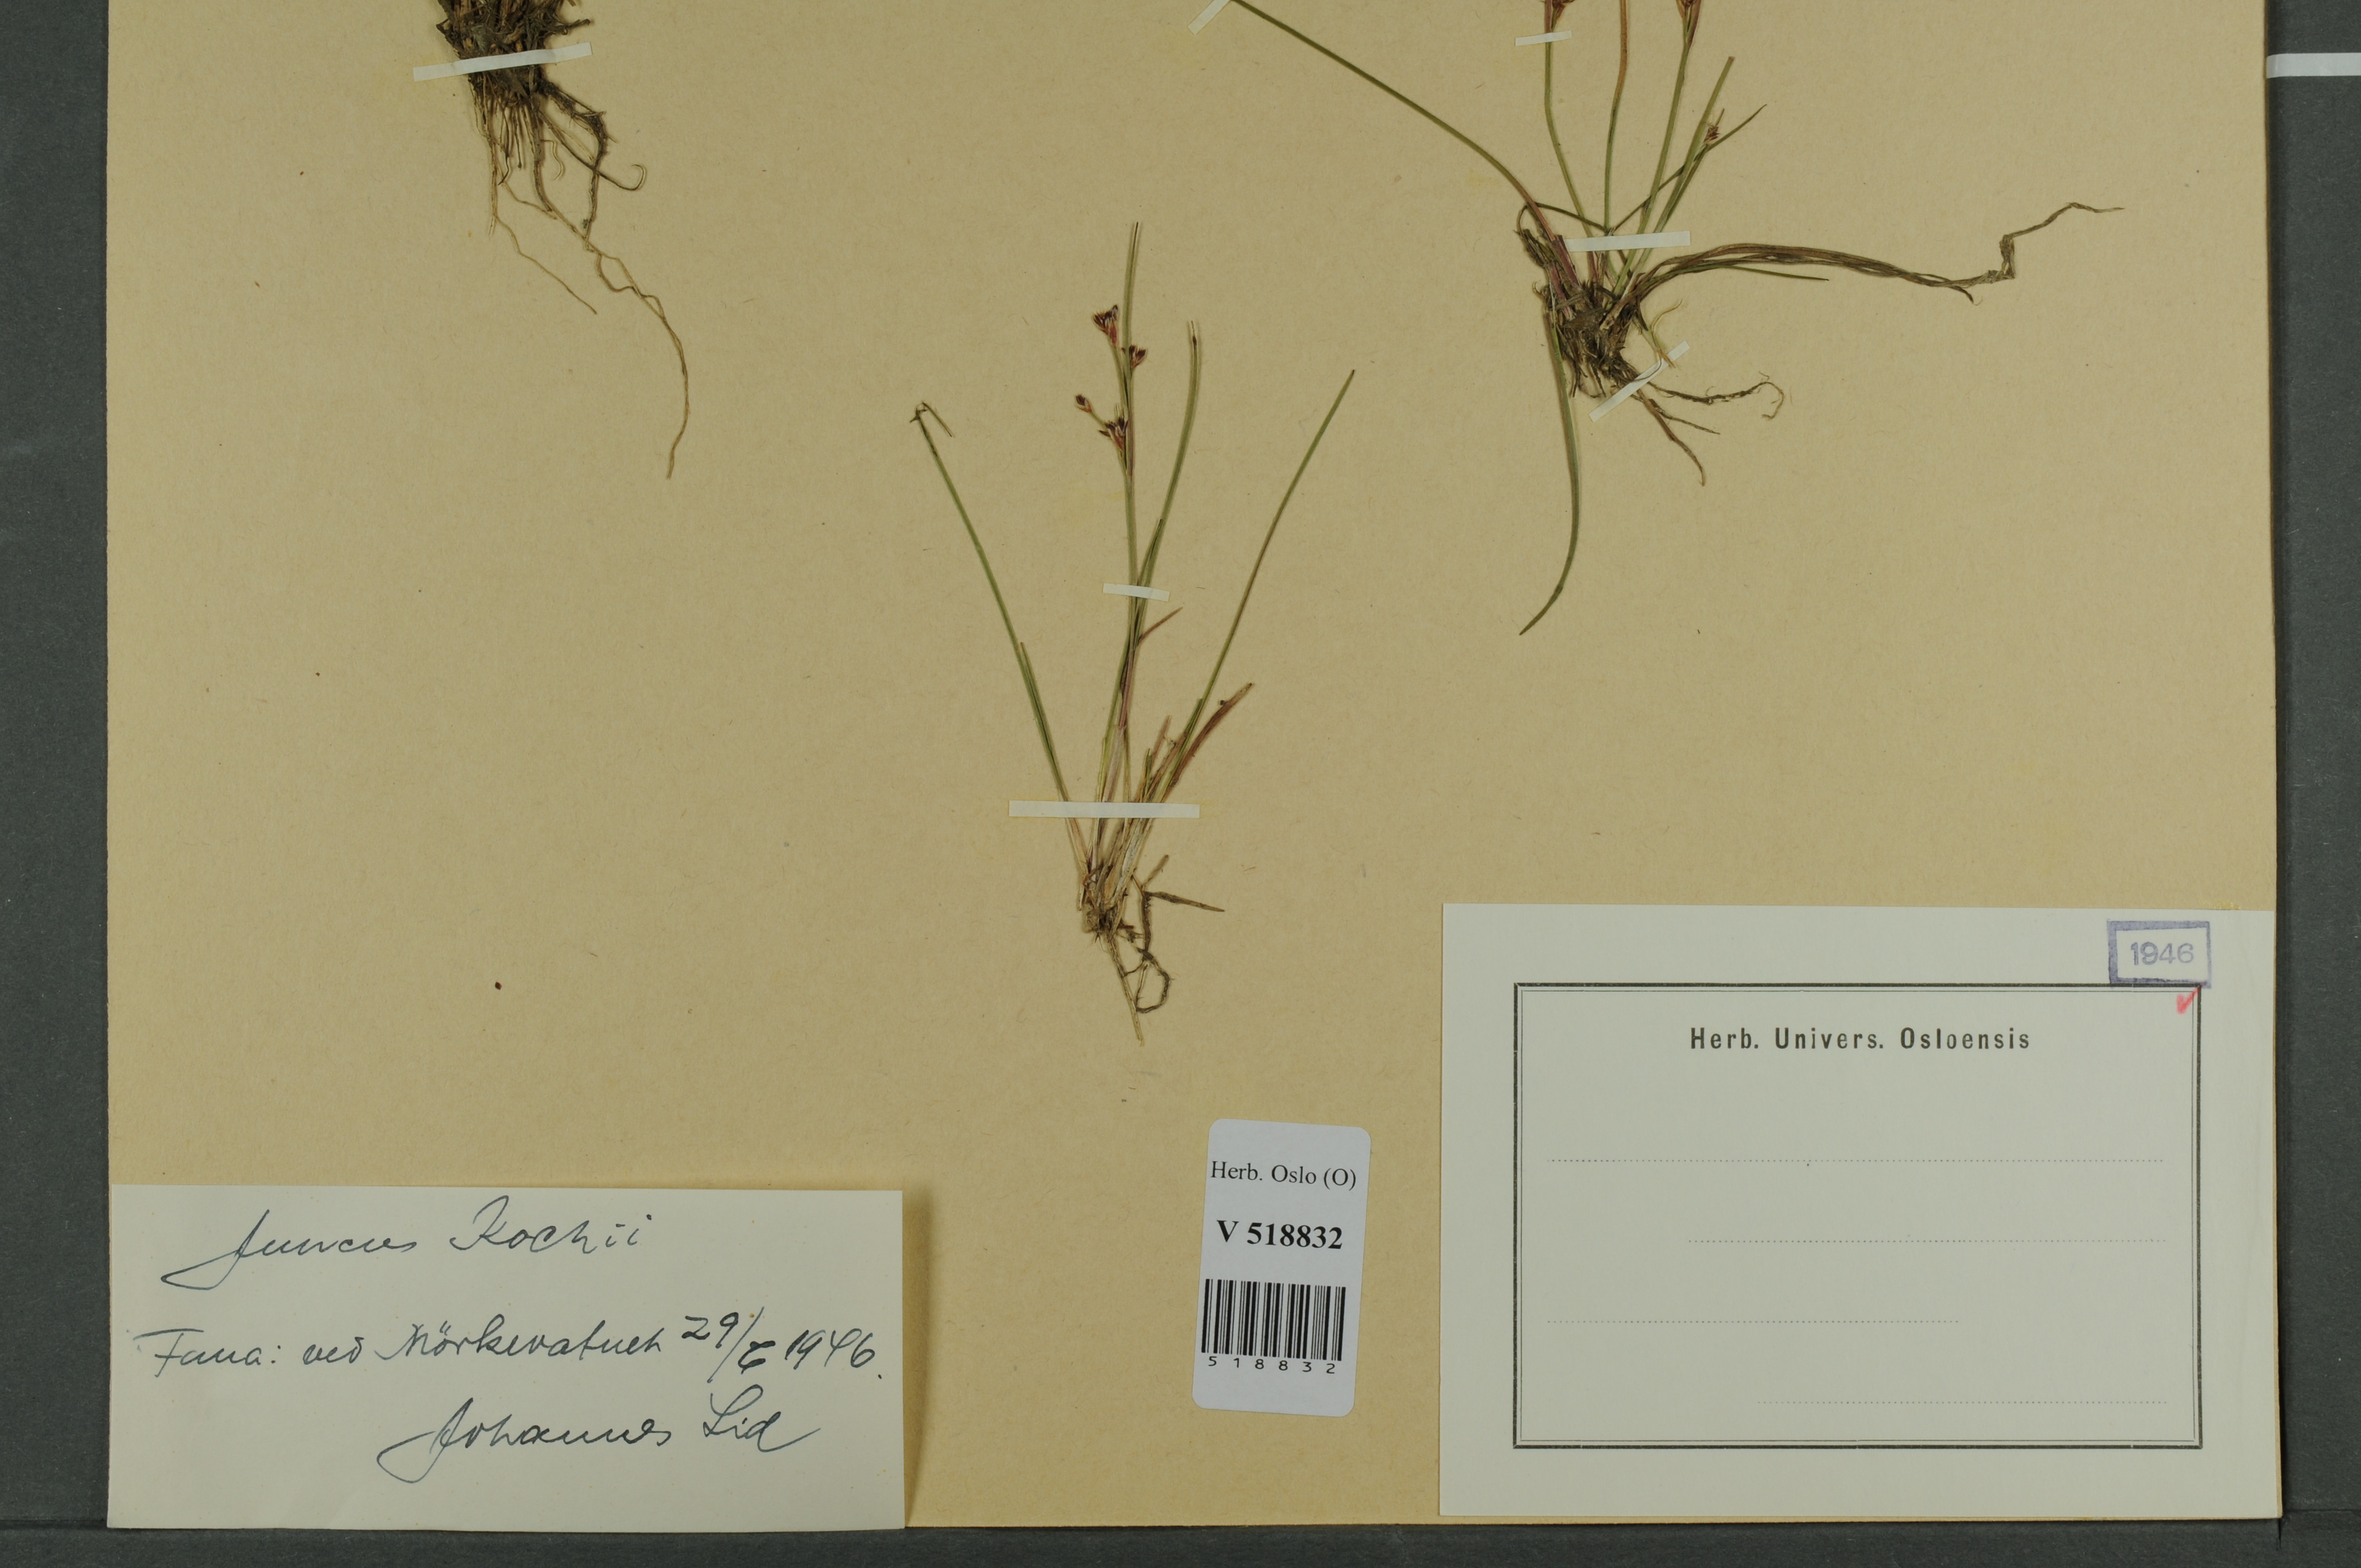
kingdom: Plantae
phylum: Tracheophyta
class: Liliopsida
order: Poales
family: Juncaceae
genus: Juncus
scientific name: Juncus bulbosus
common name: Bulbous rush
